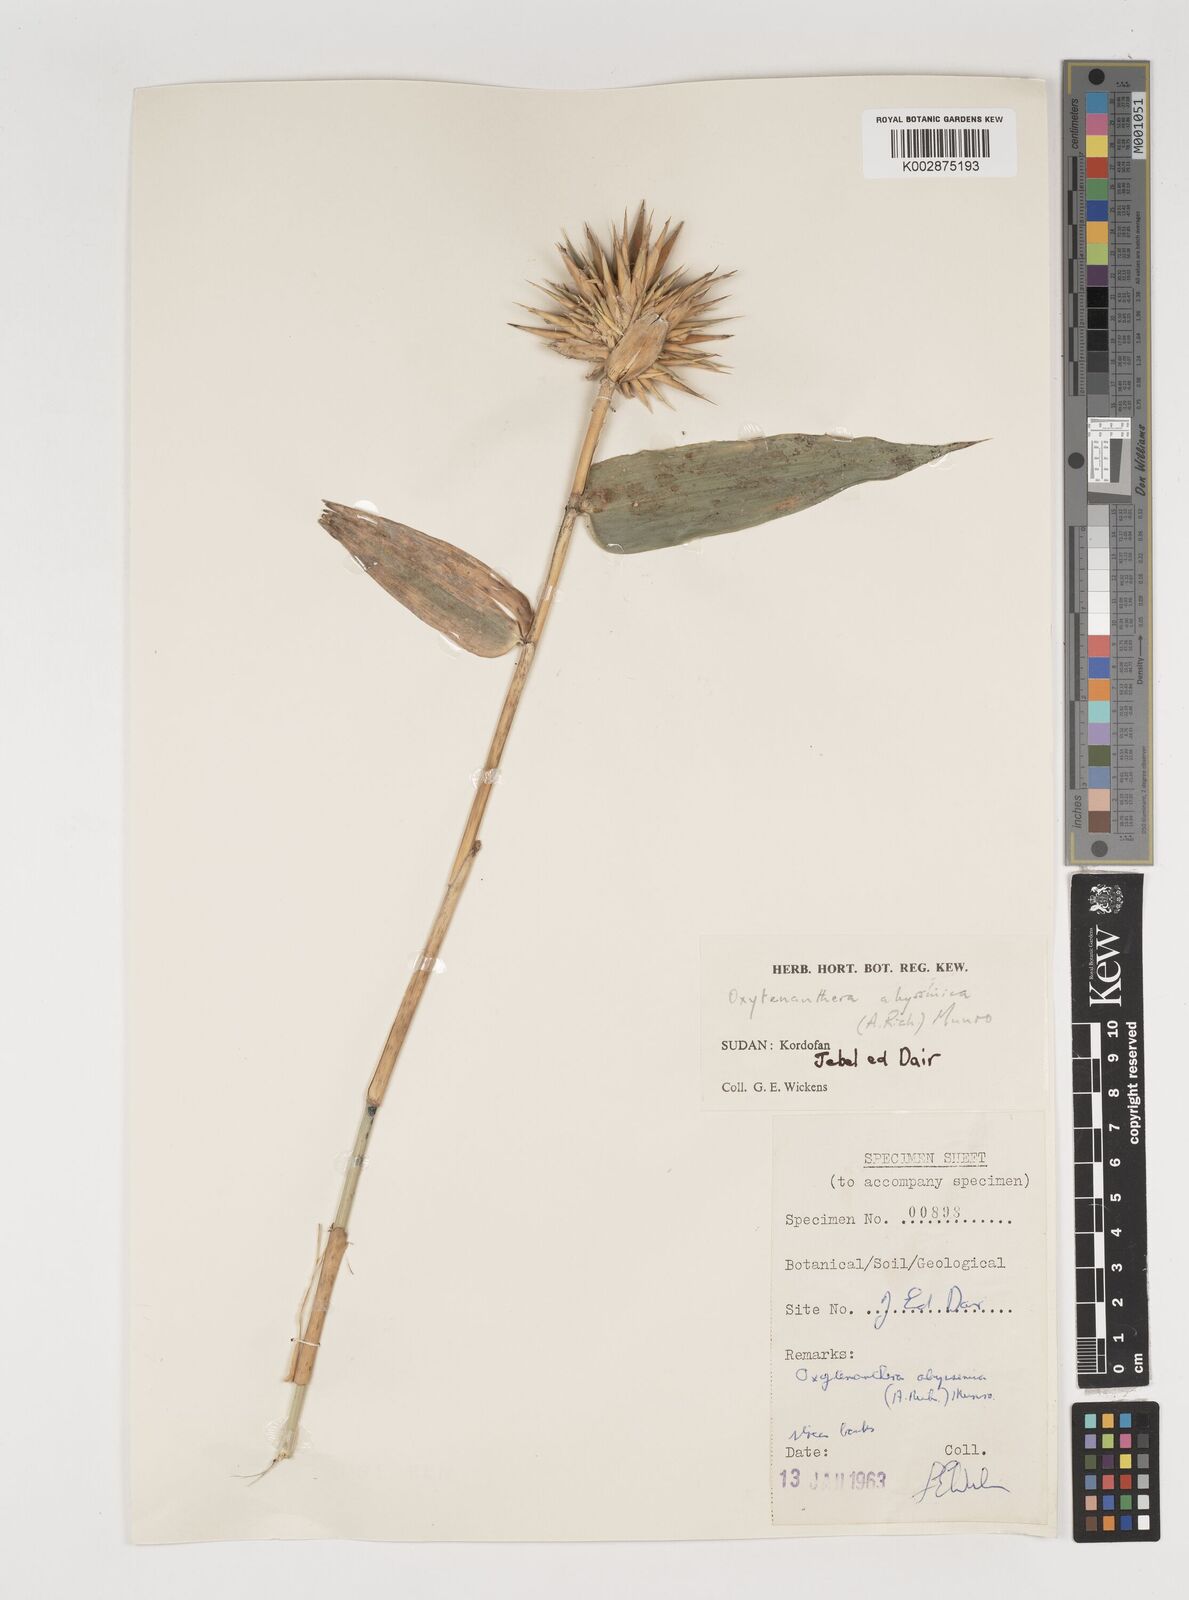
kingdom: Plantae
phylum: Tracheophyta
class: Liliopsida
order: Poales
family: Poaceae
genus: Oxytenanthera
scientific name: Oxytenanthera abyssinica
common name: Wine bamboo
